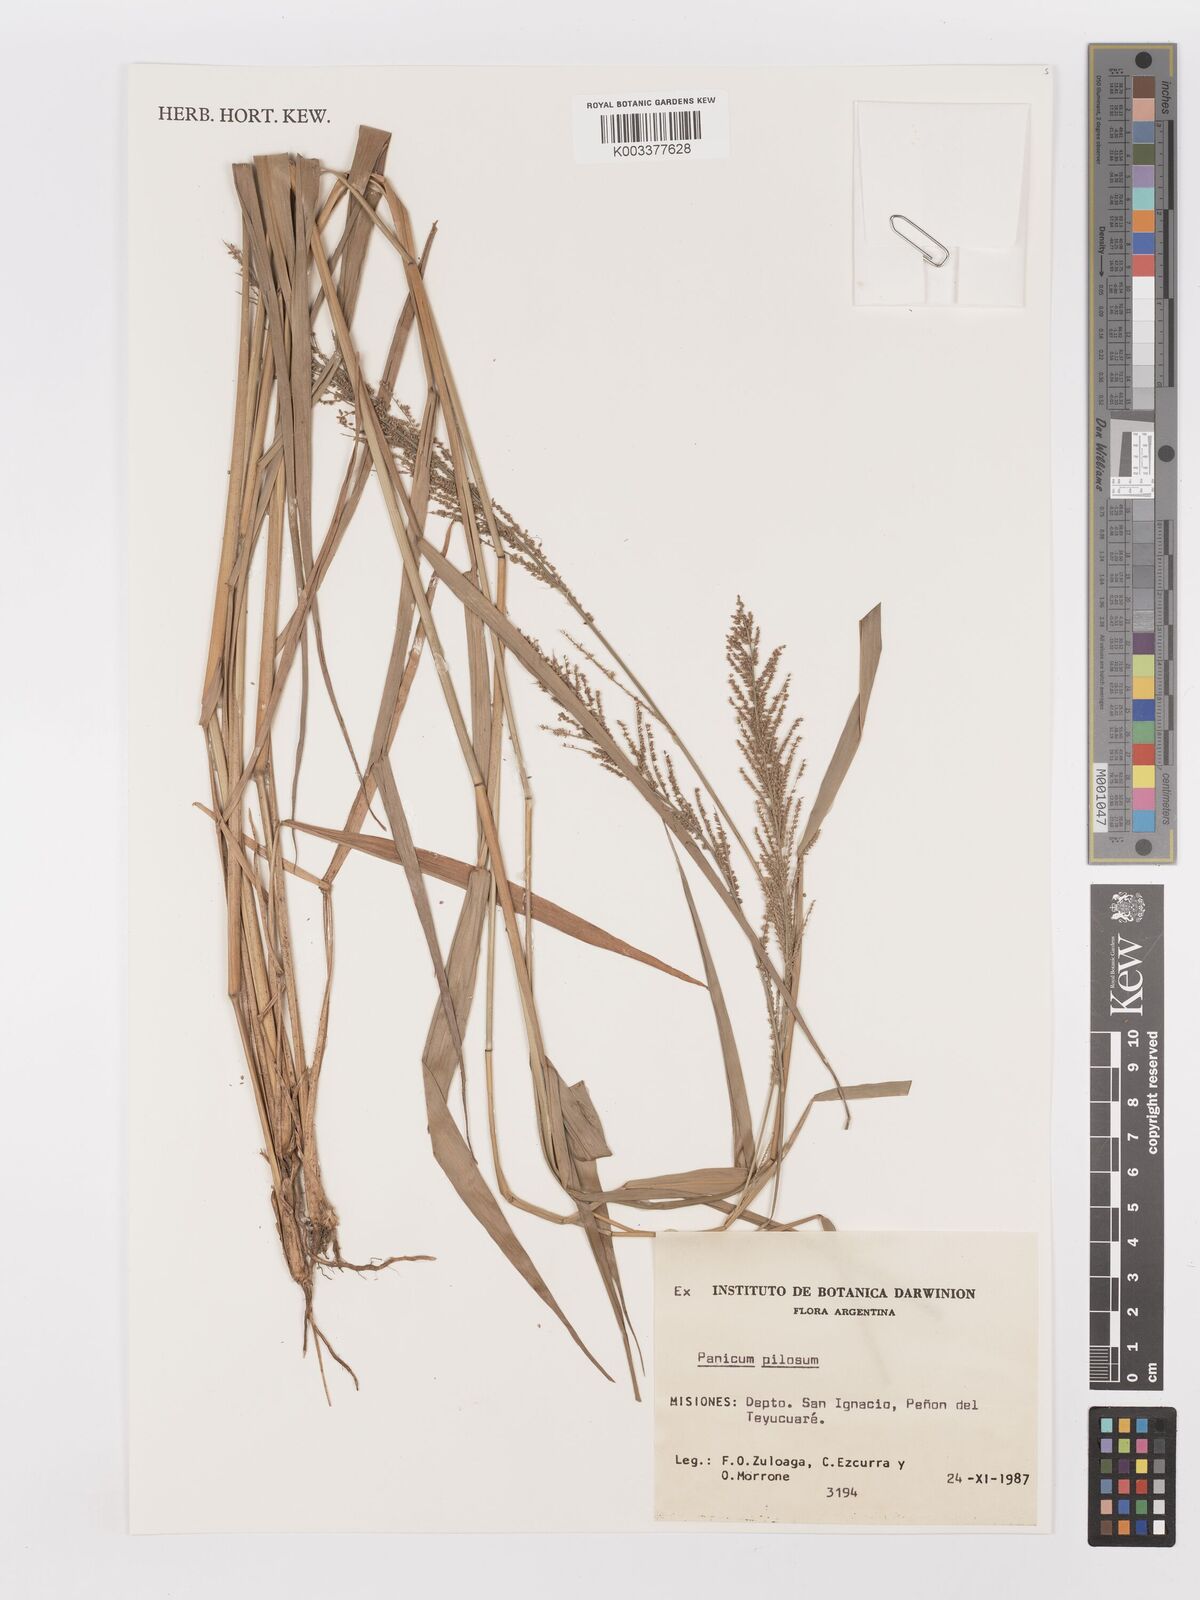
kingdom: Plantae
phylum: Tracheophyta
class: Liliopsida
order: Poales
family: Poaceae
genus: Rugoloa
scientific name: Rugoloa pilosa
